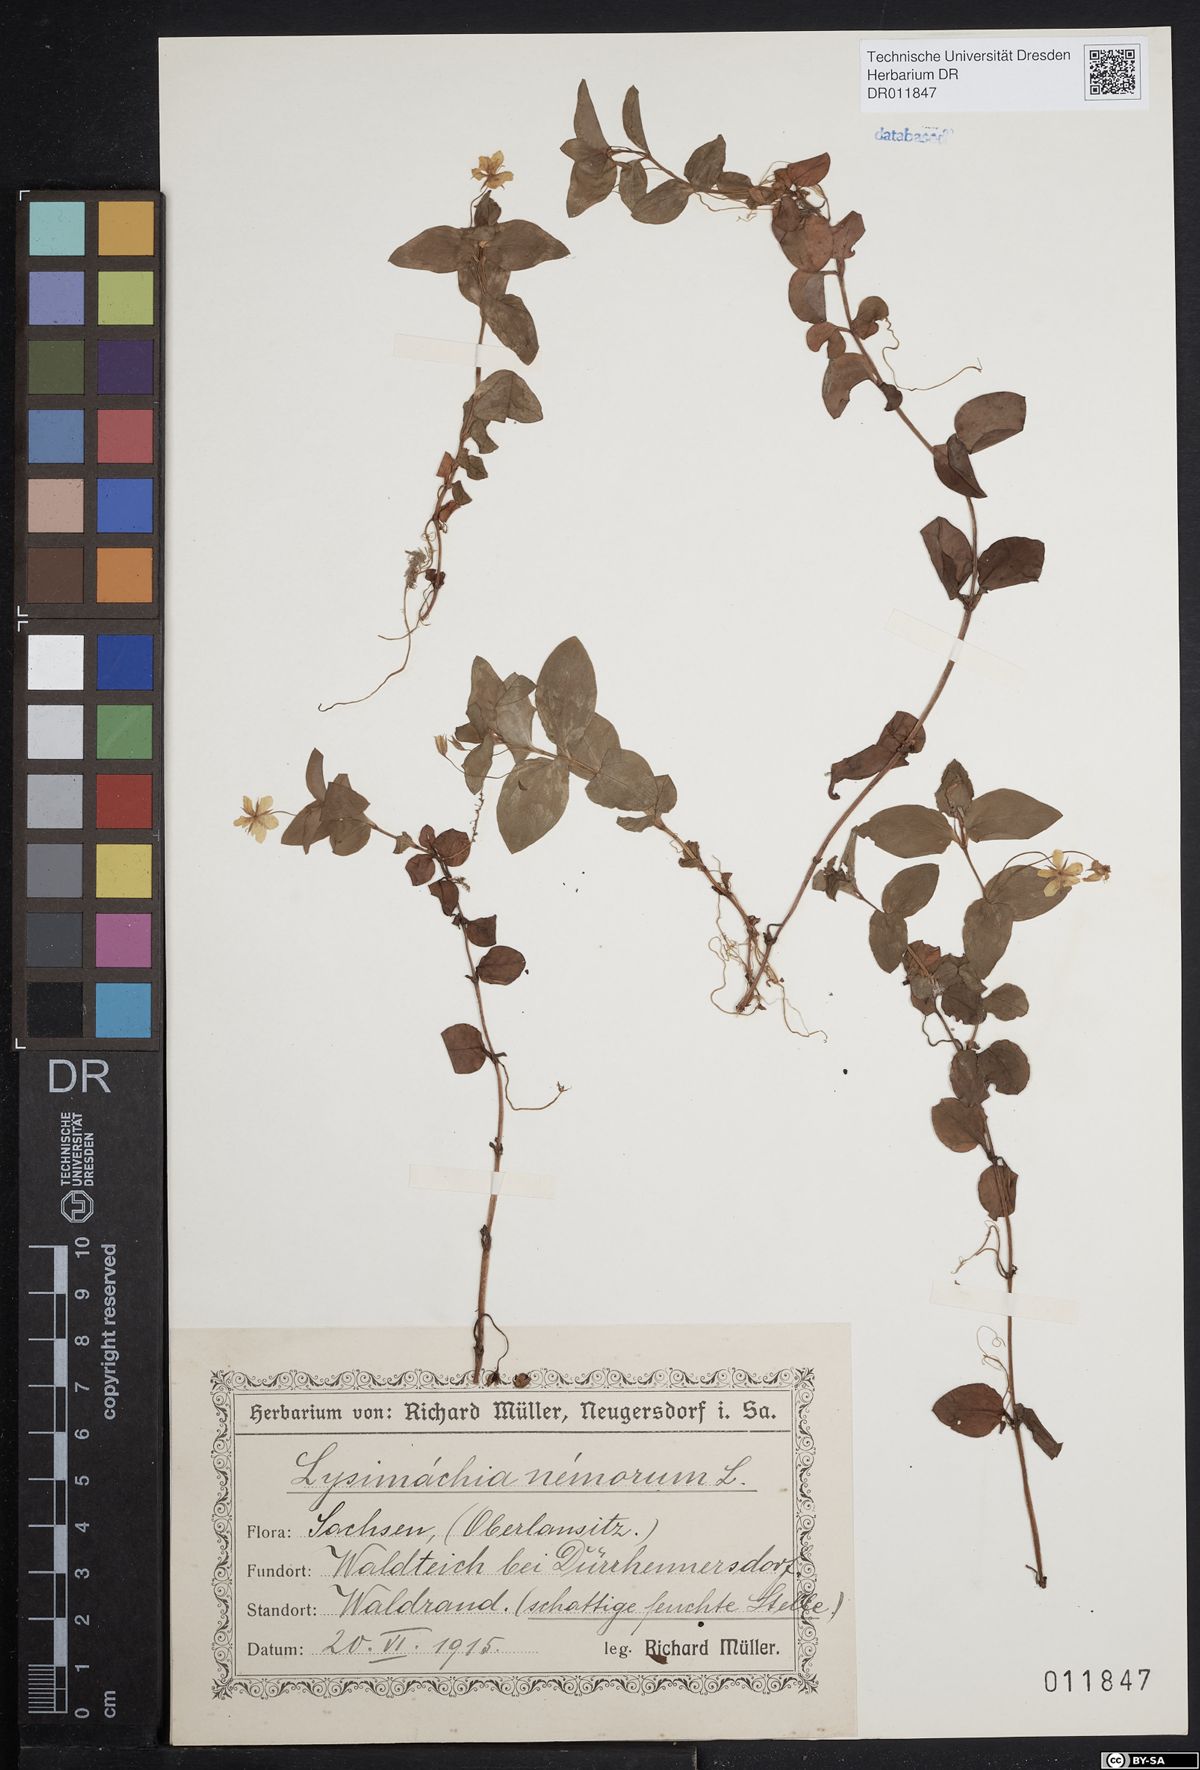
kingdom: Plantae
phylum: Tracheophyta
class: Magnoliopsida
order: Ericales
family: Primulaceae
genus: Lysimachia
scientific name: Lysimachia nemorum
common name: Yellow pimpernel
